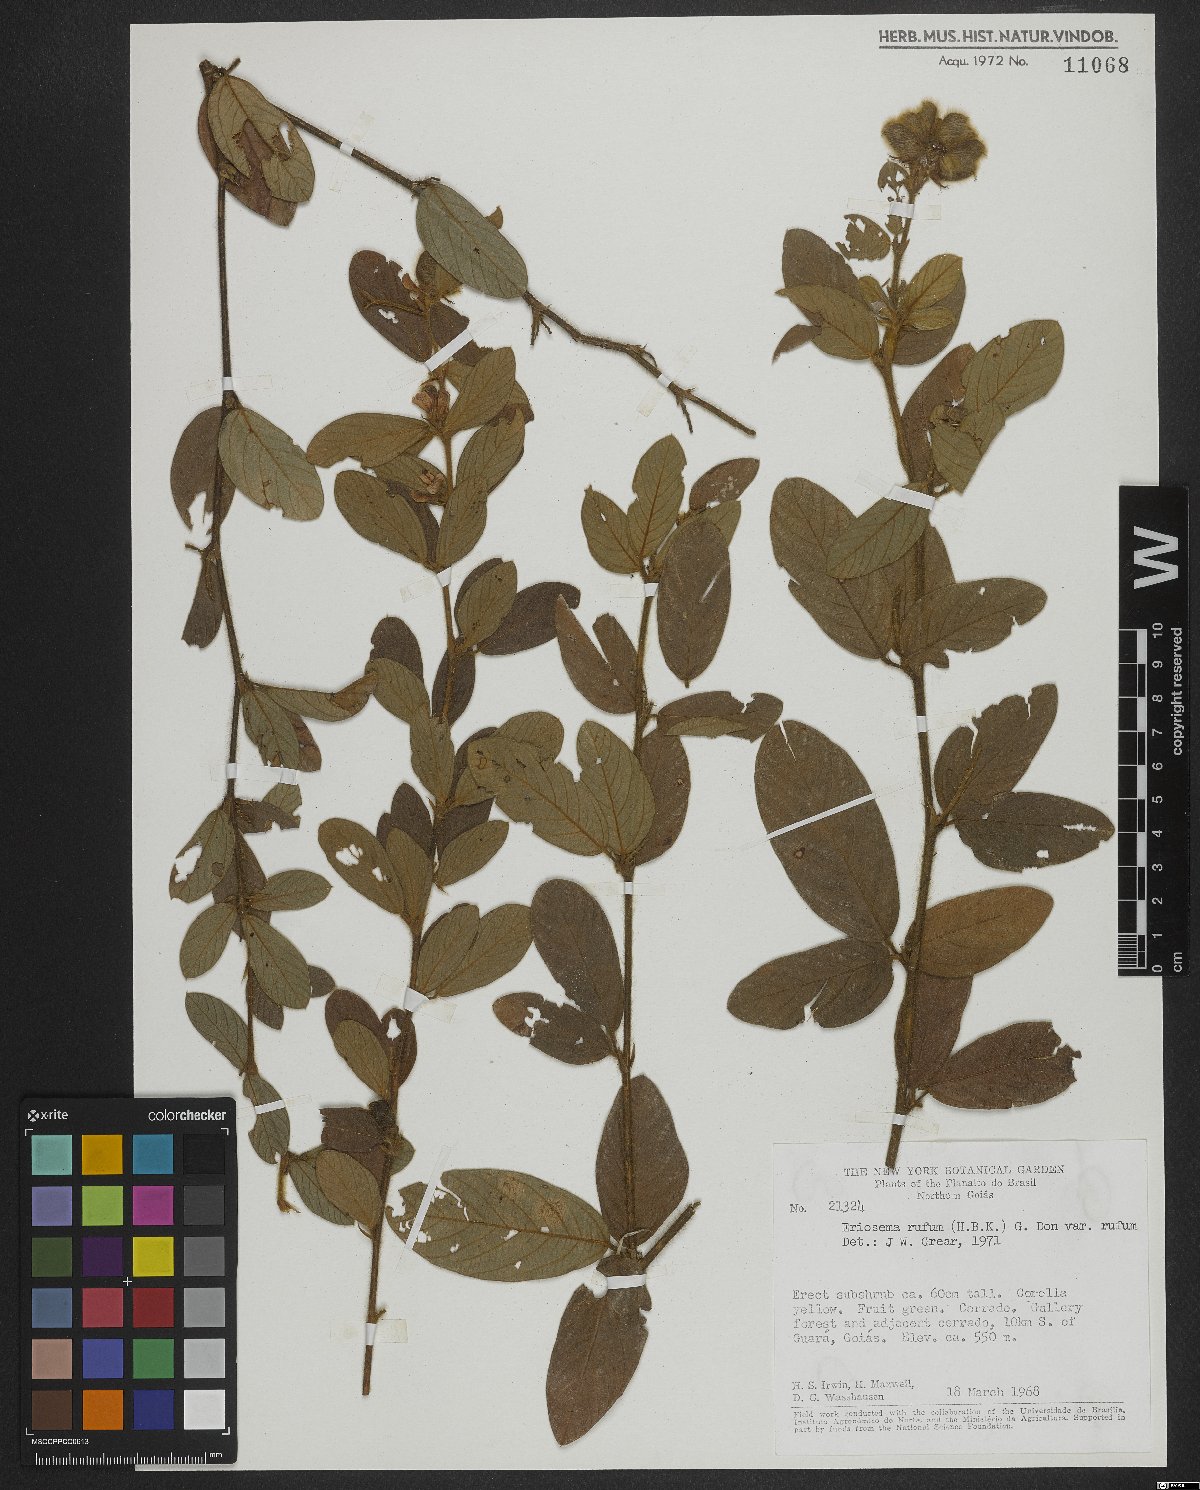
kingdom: Plantae
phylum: Tracheophyta
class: Magnoliopsida
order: Fabales
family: Fabaceae
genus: Eriosema
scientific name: Eriosema rufum
